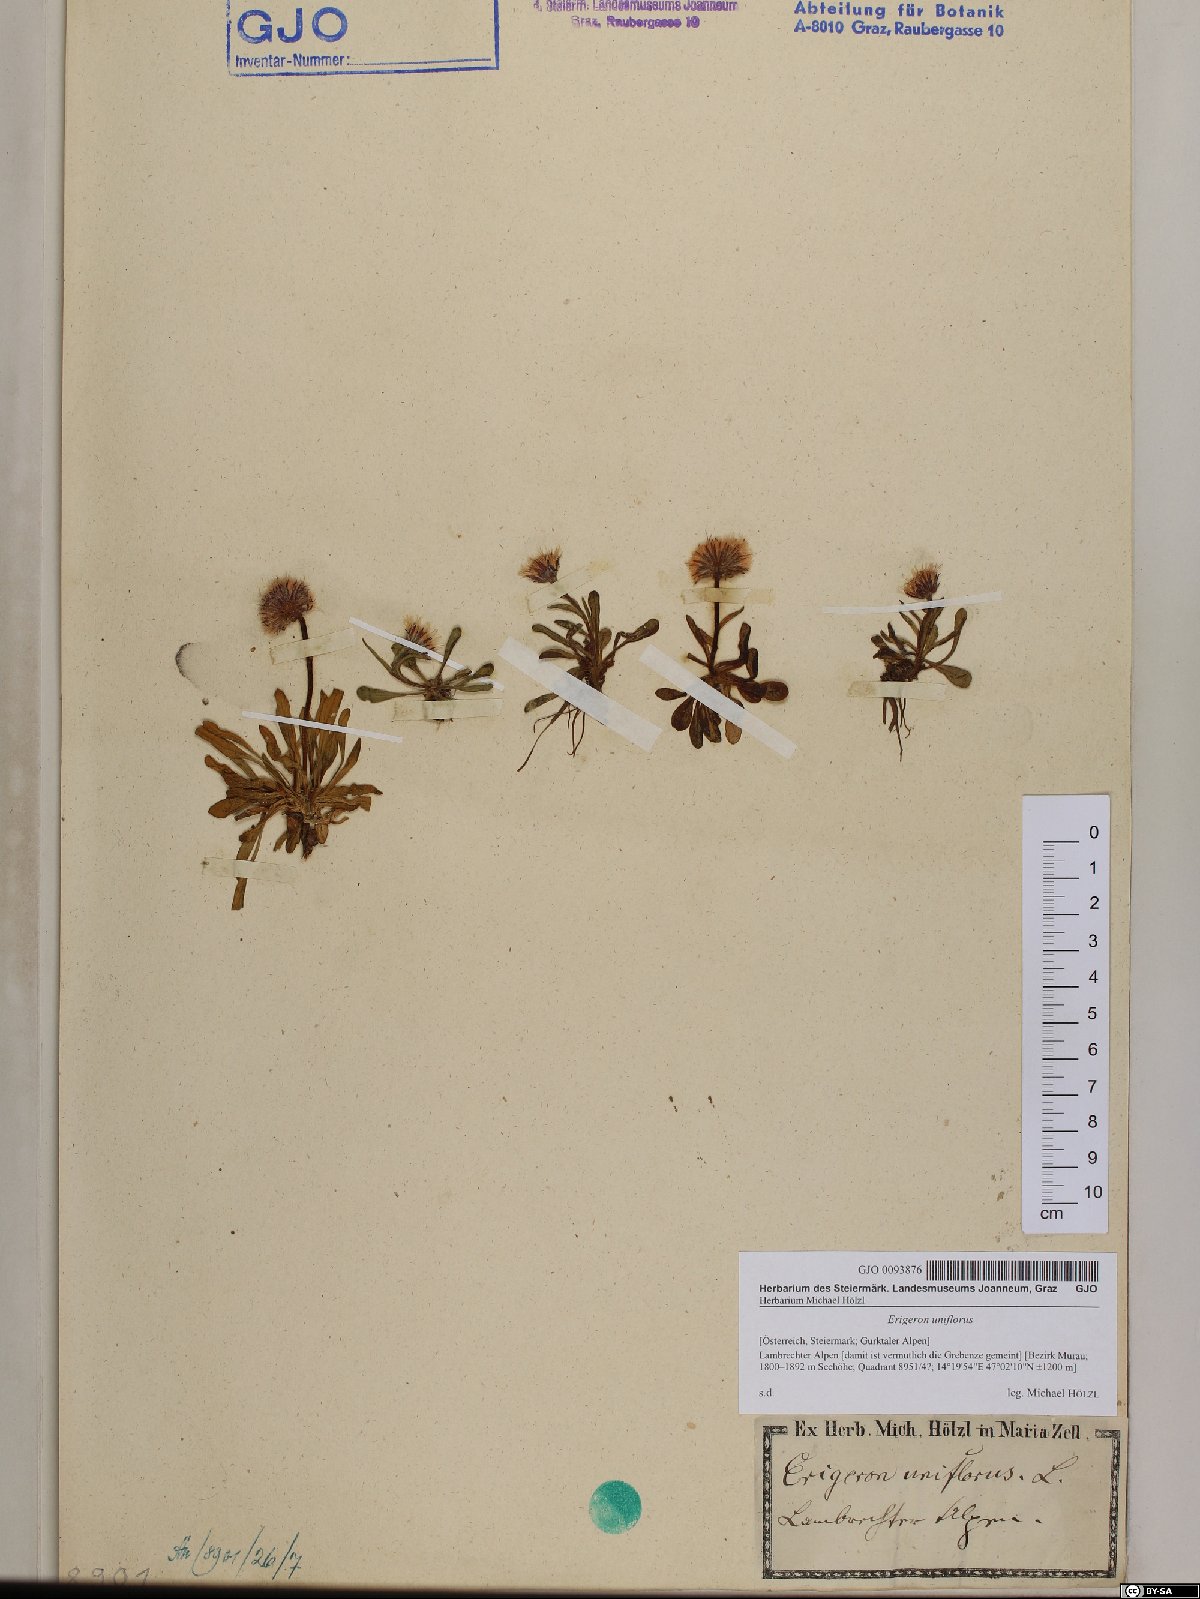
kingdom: Plantae
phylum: Tracheophyta
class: Magnoliopsida
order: Asterales
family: Asteraceae
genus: Erigeron
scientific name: Erigeron uniflorus
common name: Northern daisy
